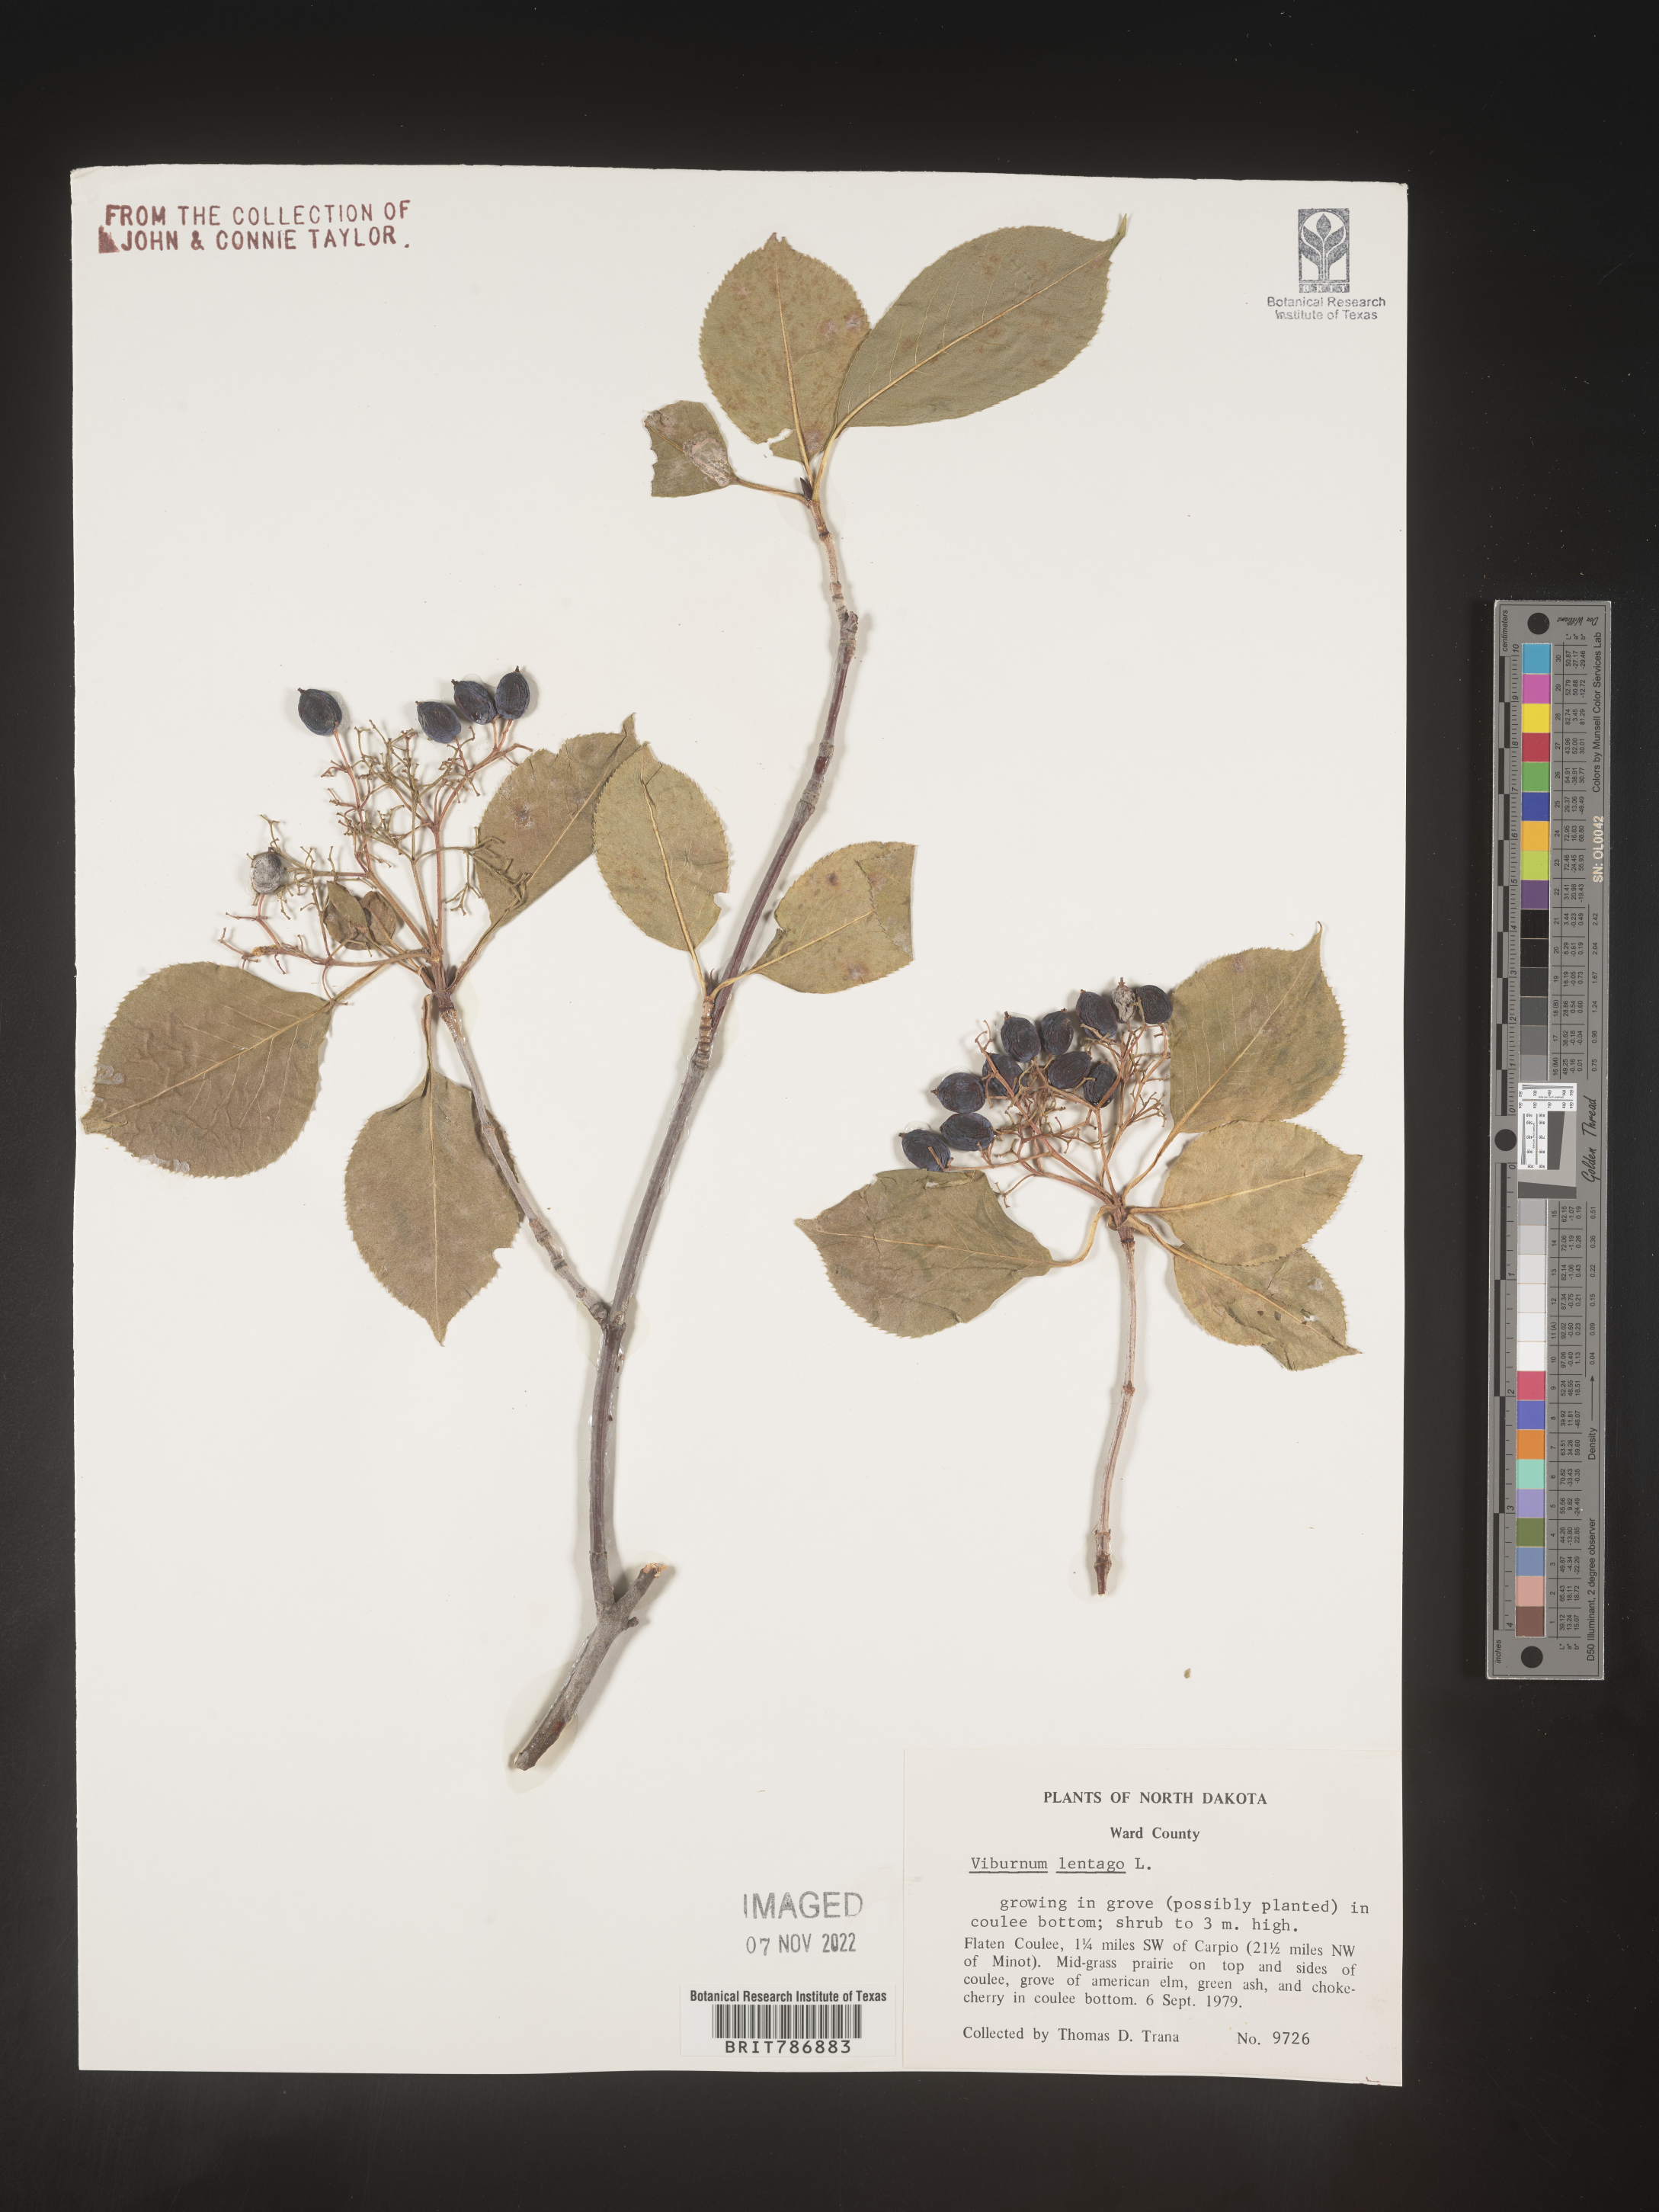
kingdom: Plantae
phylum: Tracheophyta
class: Magnoliopsida
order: Dipsacales
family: Viburnaceae
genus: Viburnum
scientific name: Viburnum lentago
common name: Black haw
